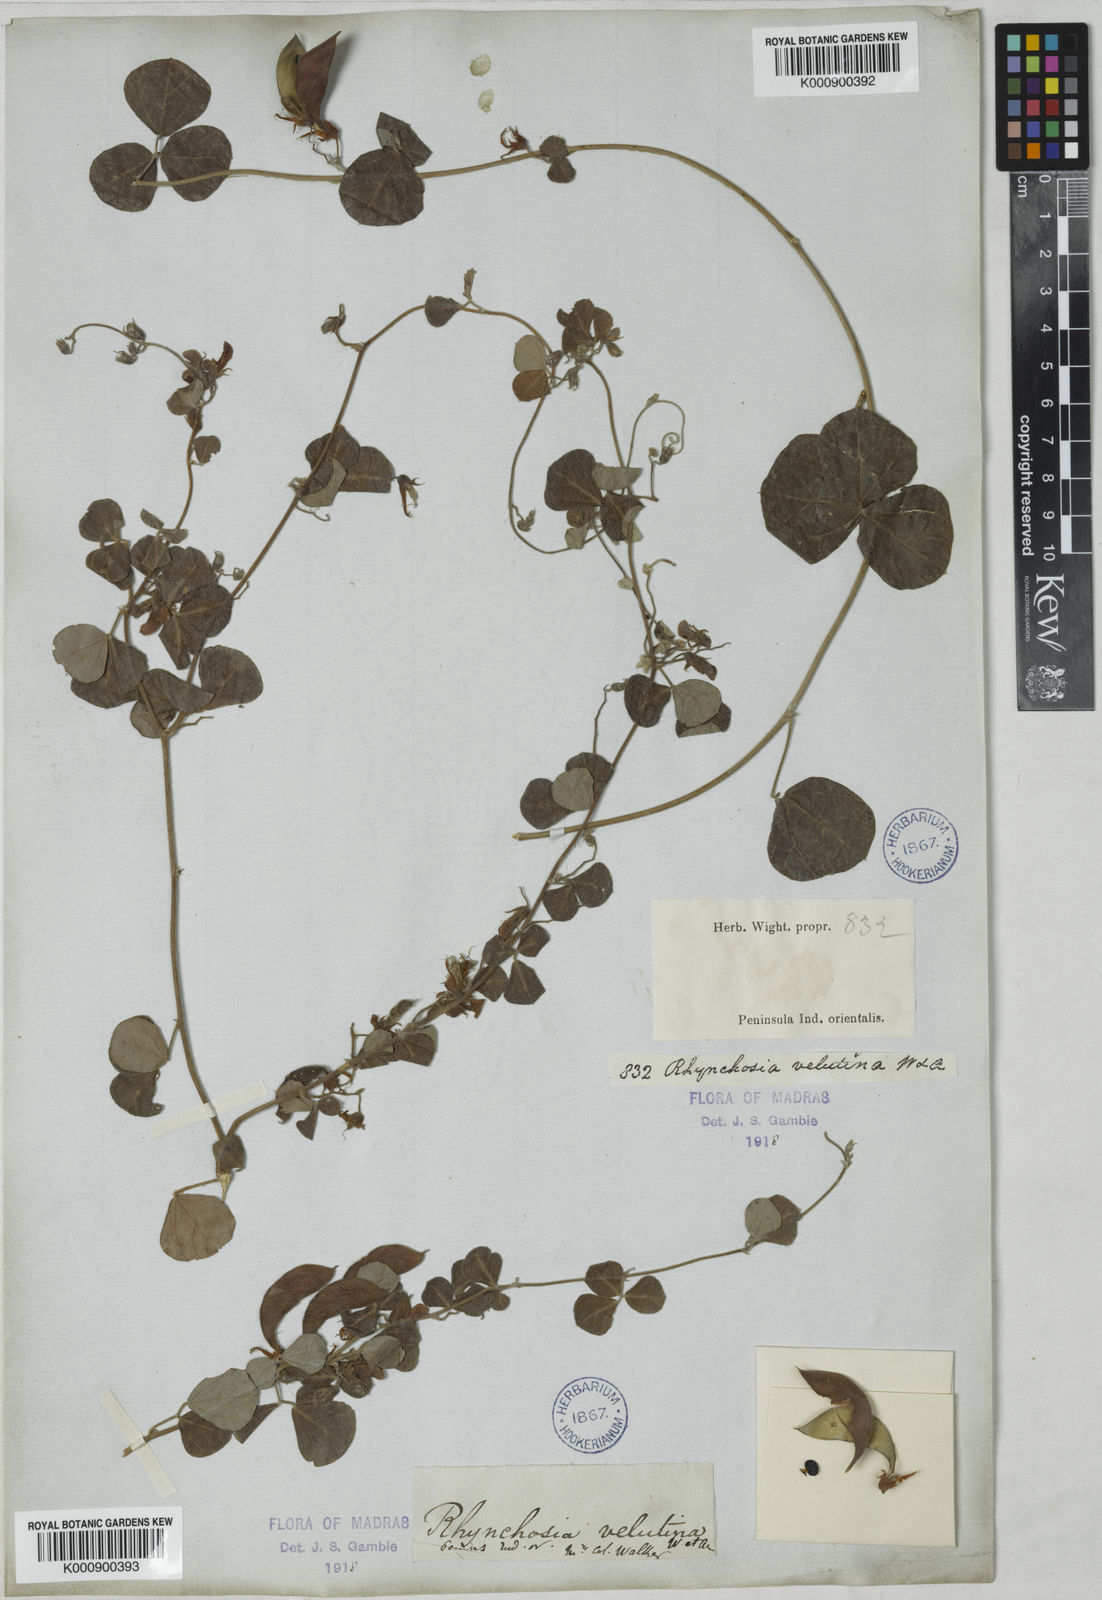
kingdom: Plantae
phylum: Tracheophyta
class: Magnoliopsida
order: Fabales
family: Fabaceae
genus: Rhynchosia
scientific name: Rhynchosia velutina
